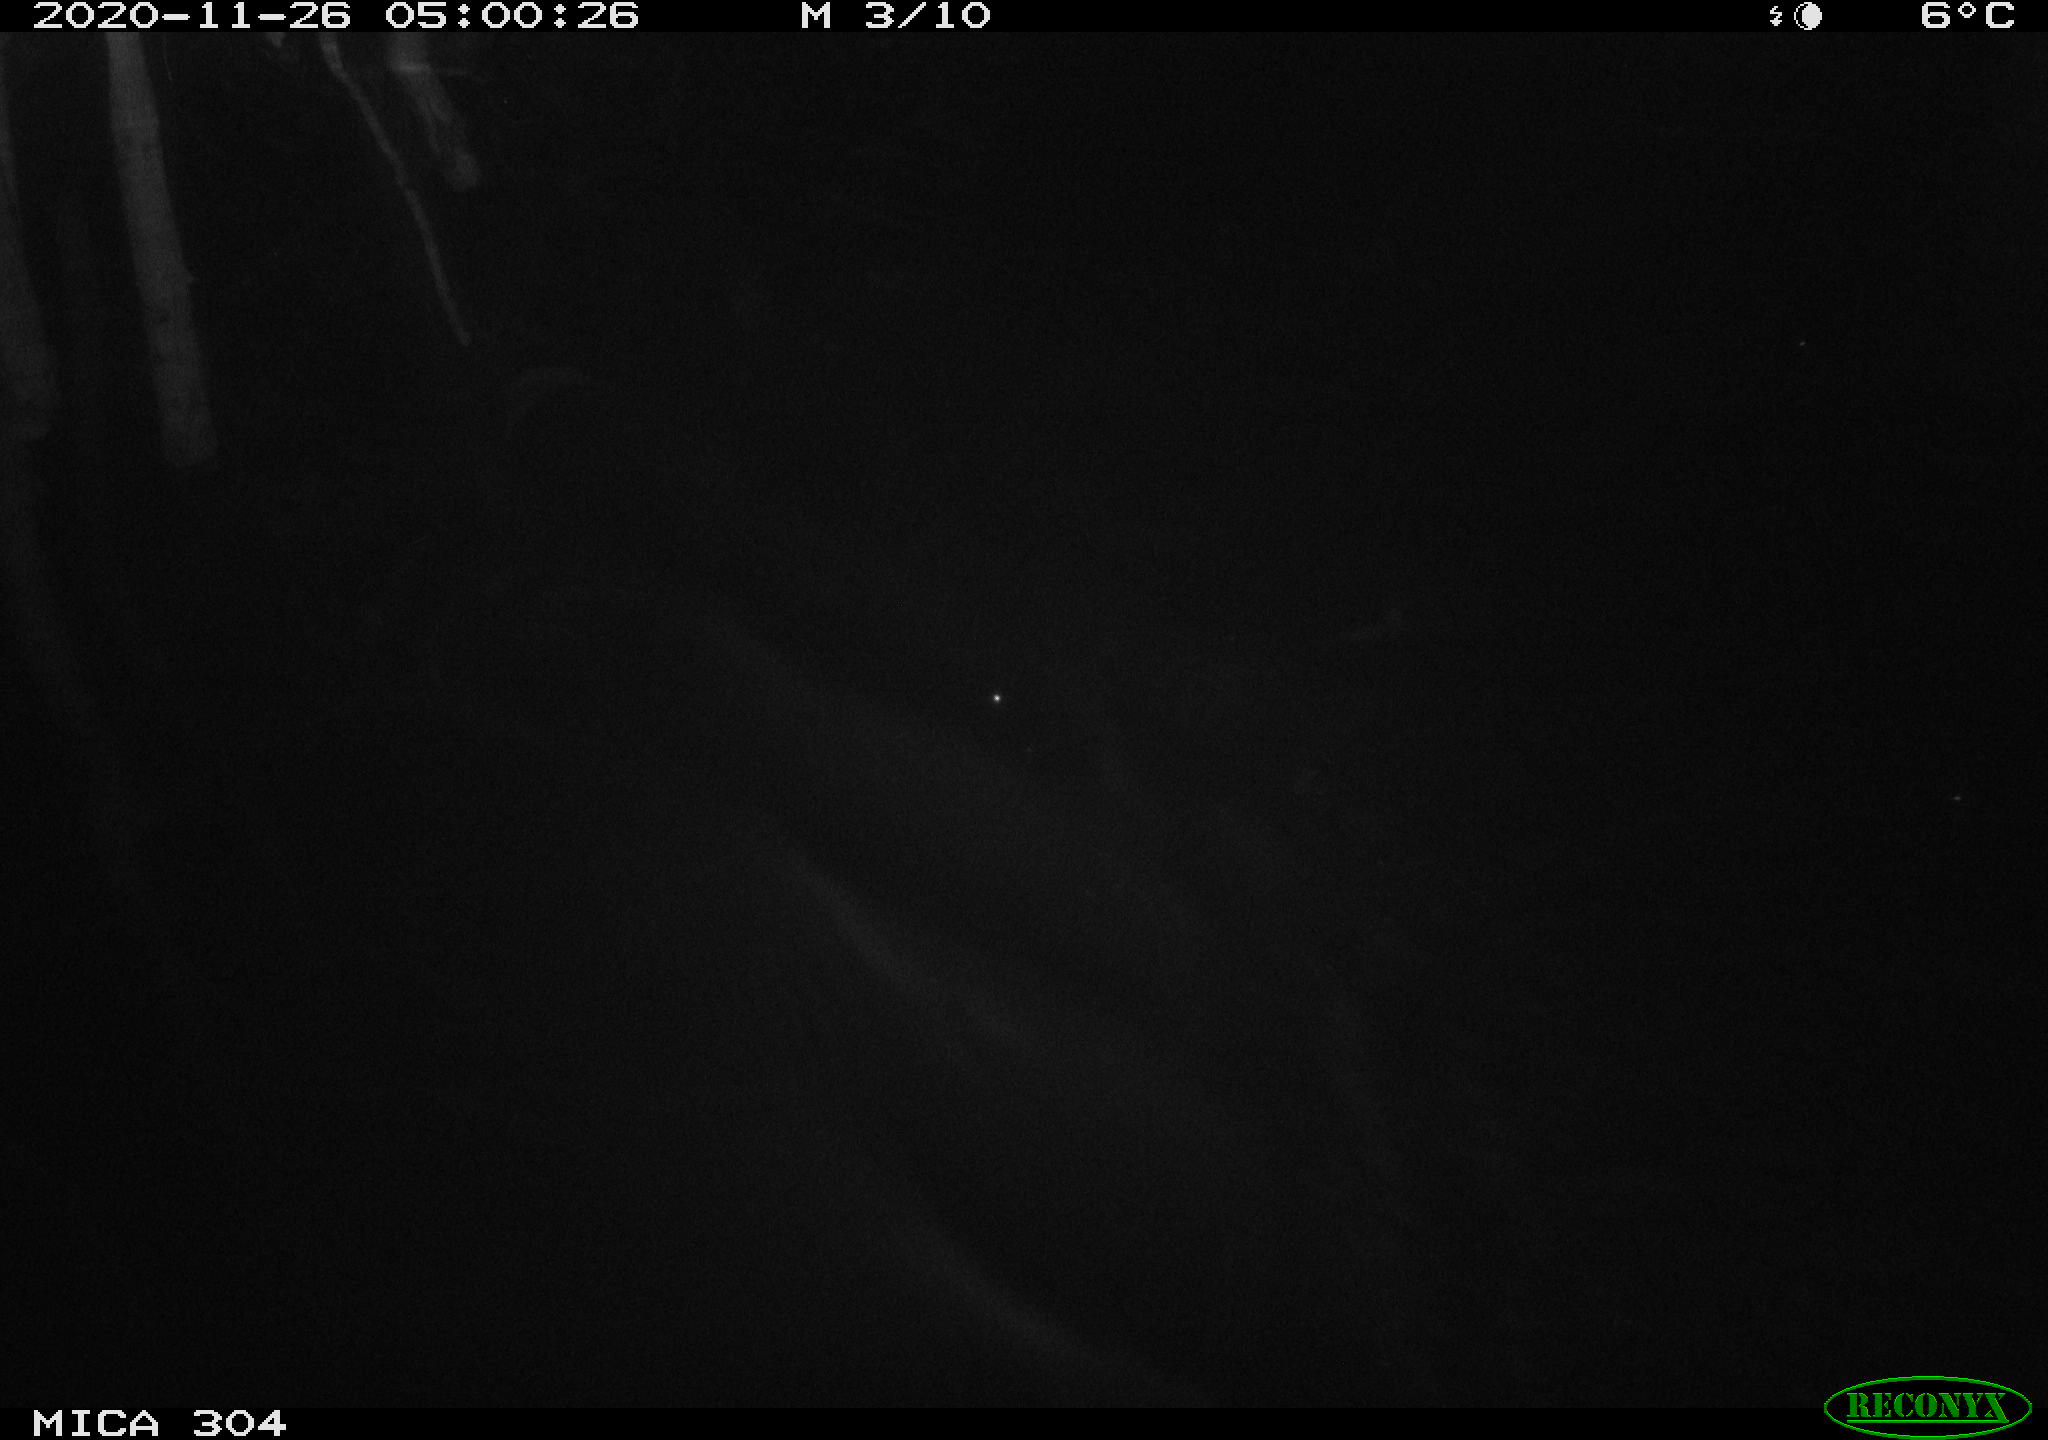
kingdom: Animalia
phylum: Chordata
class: Mammalia
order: Rodentia
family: Cricetidae
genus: Ondatra
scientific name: Ondatra zibethicus
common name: Muskrat
